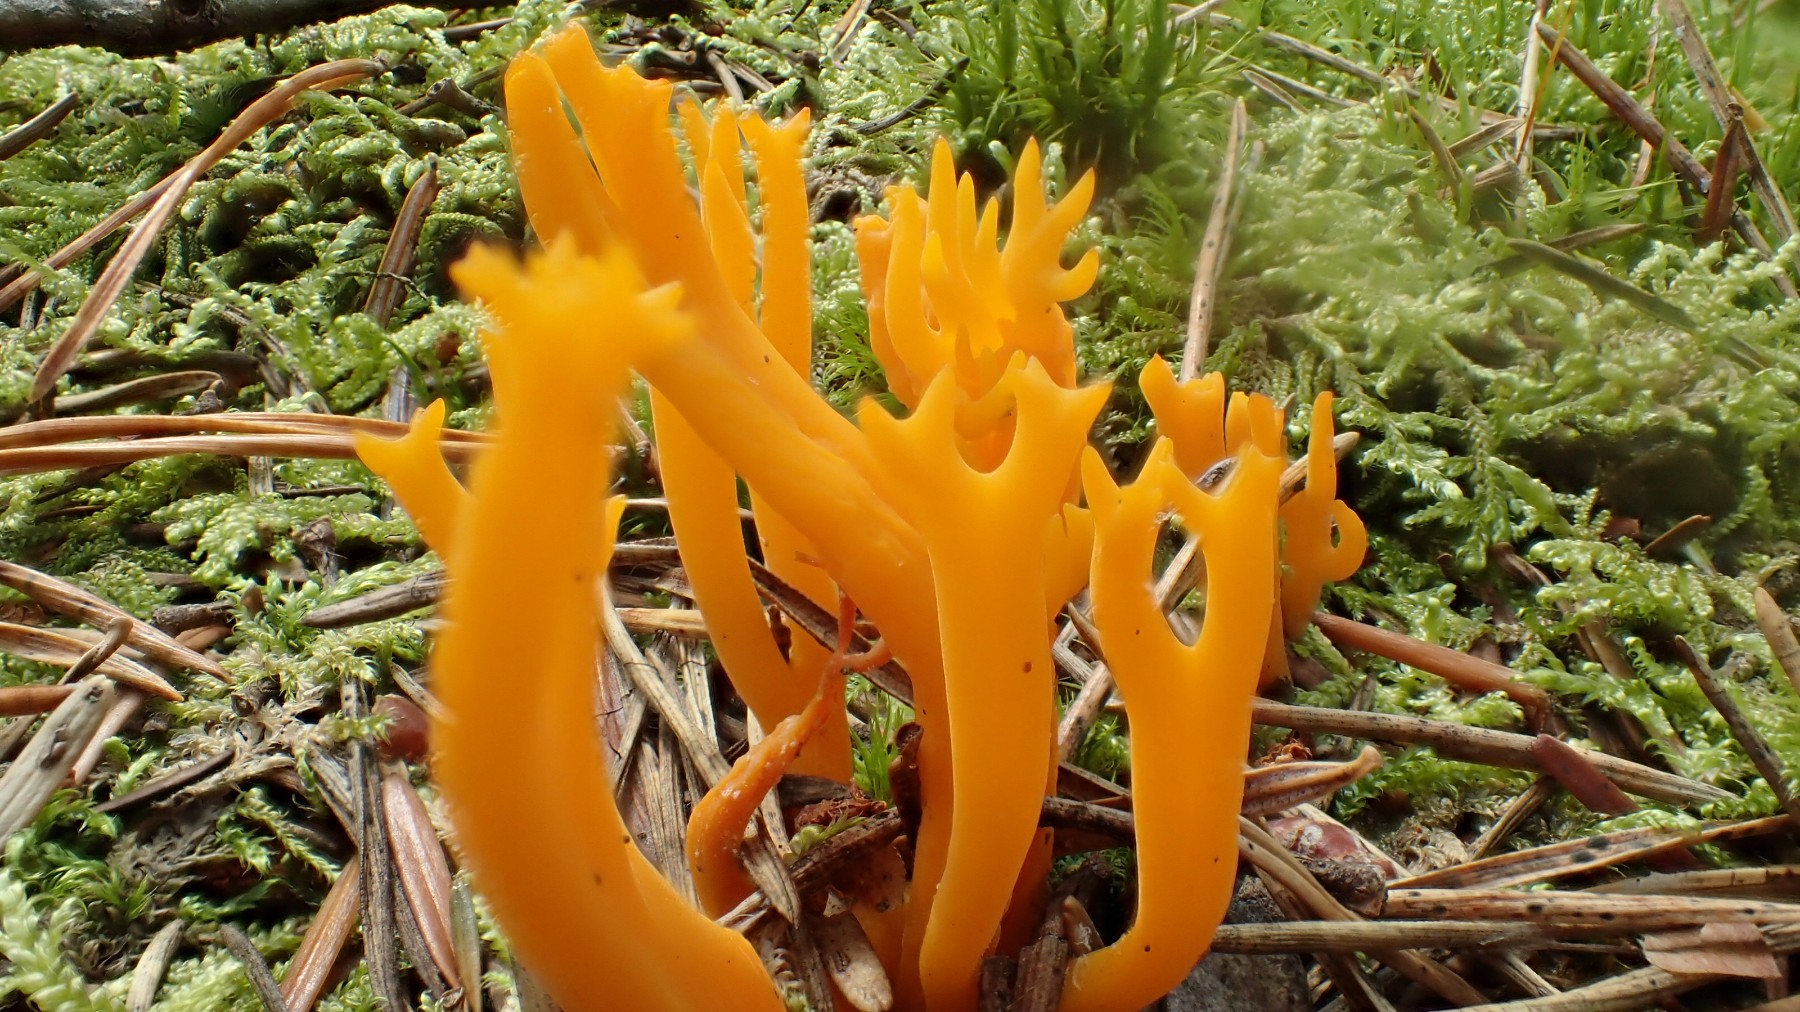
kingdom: Fungi
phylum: Basidiomycota
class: Dacrymycetes
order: Dacrymycetales
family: Dacrymycetaceae
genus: Calocera
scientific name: Calocera viscosa
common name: almindelig guldgaffel
